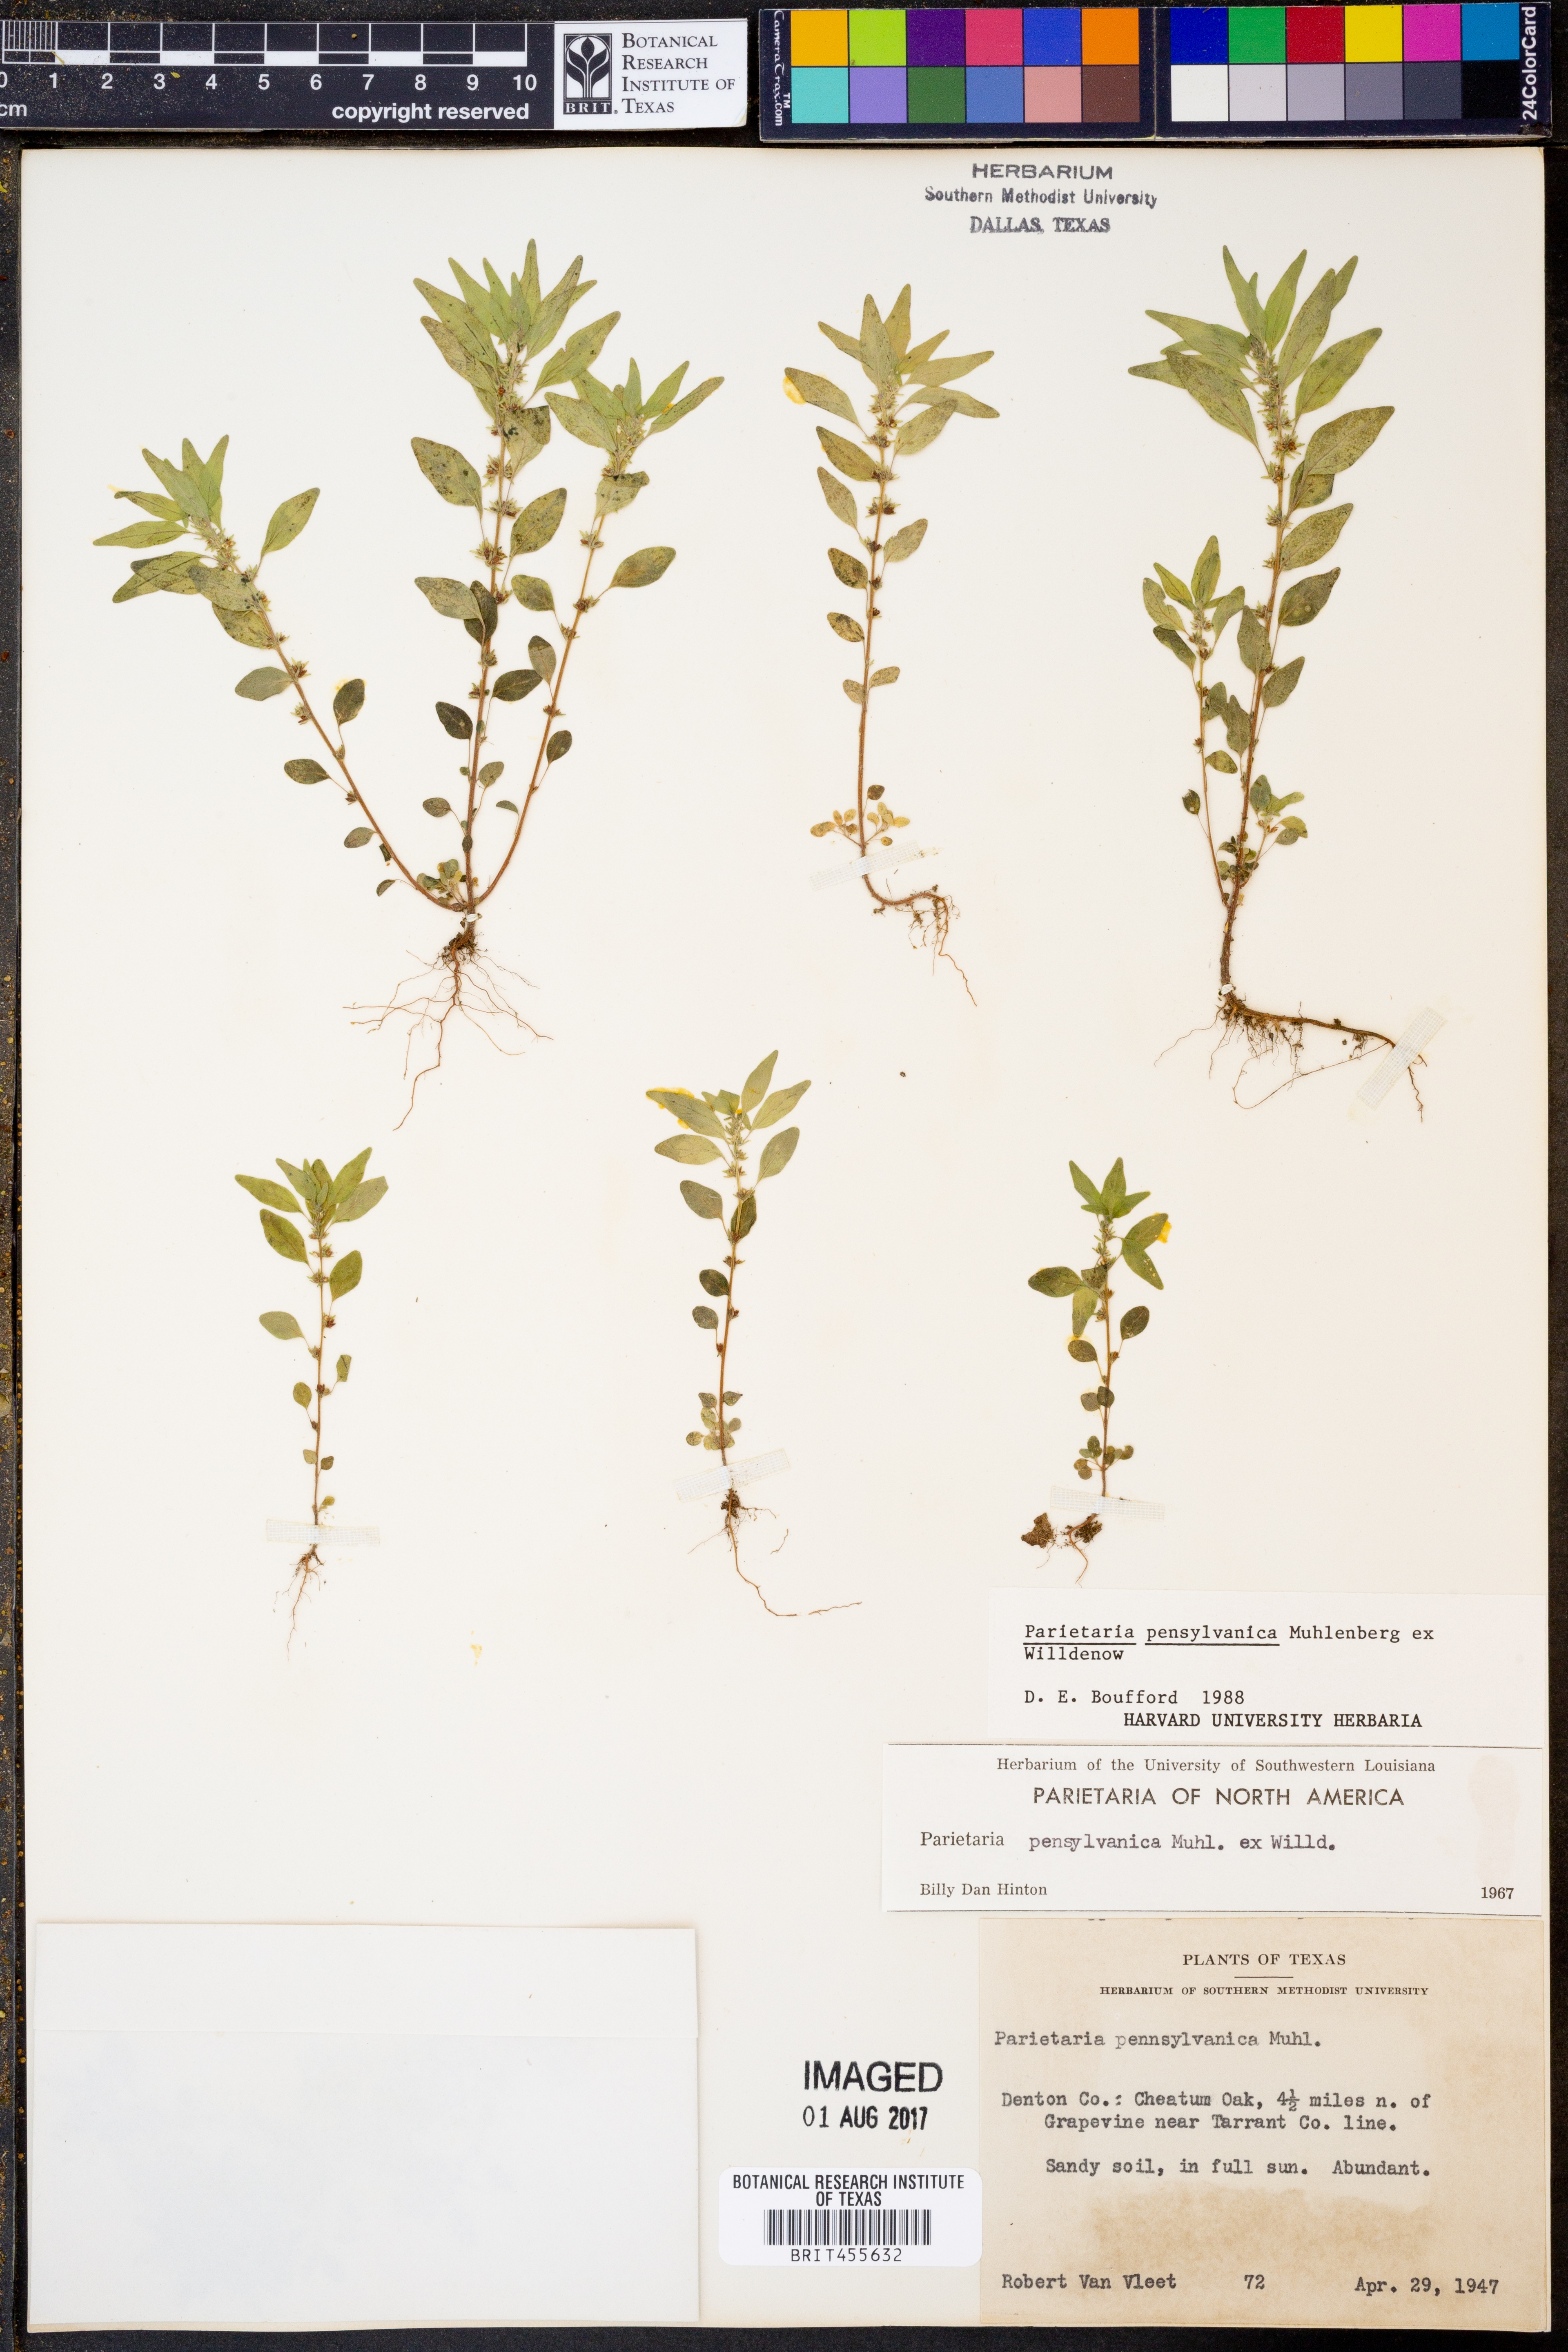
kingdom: Plantae
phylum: Tracheophyta
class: Magnoliopsida
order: Rosales
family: Urticaceae
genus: Parietaria
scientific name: Parietaria pensylvanica
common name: Pennsylvania pellitory
